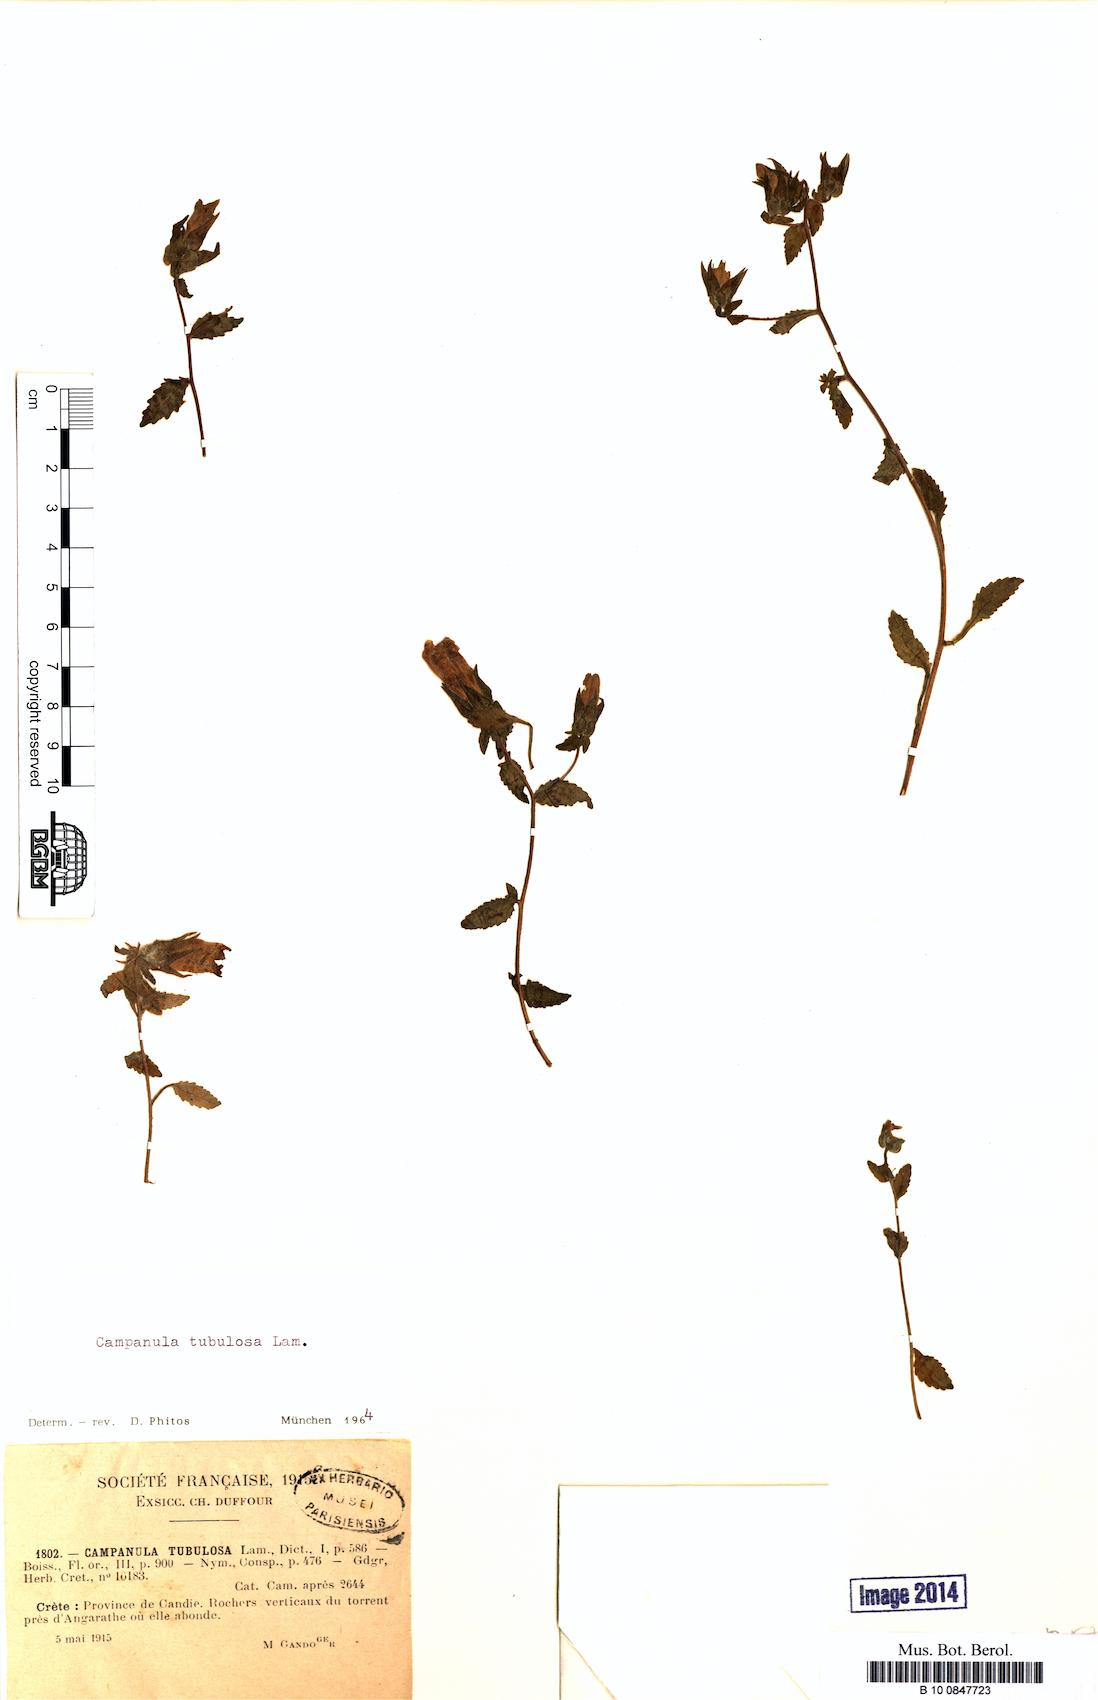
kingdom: Plantae
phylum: Tracheophyta
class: Magnoliopsida
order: Asterales
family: Campanulaceae
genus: Campanula
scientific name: Campanula tubulosa
